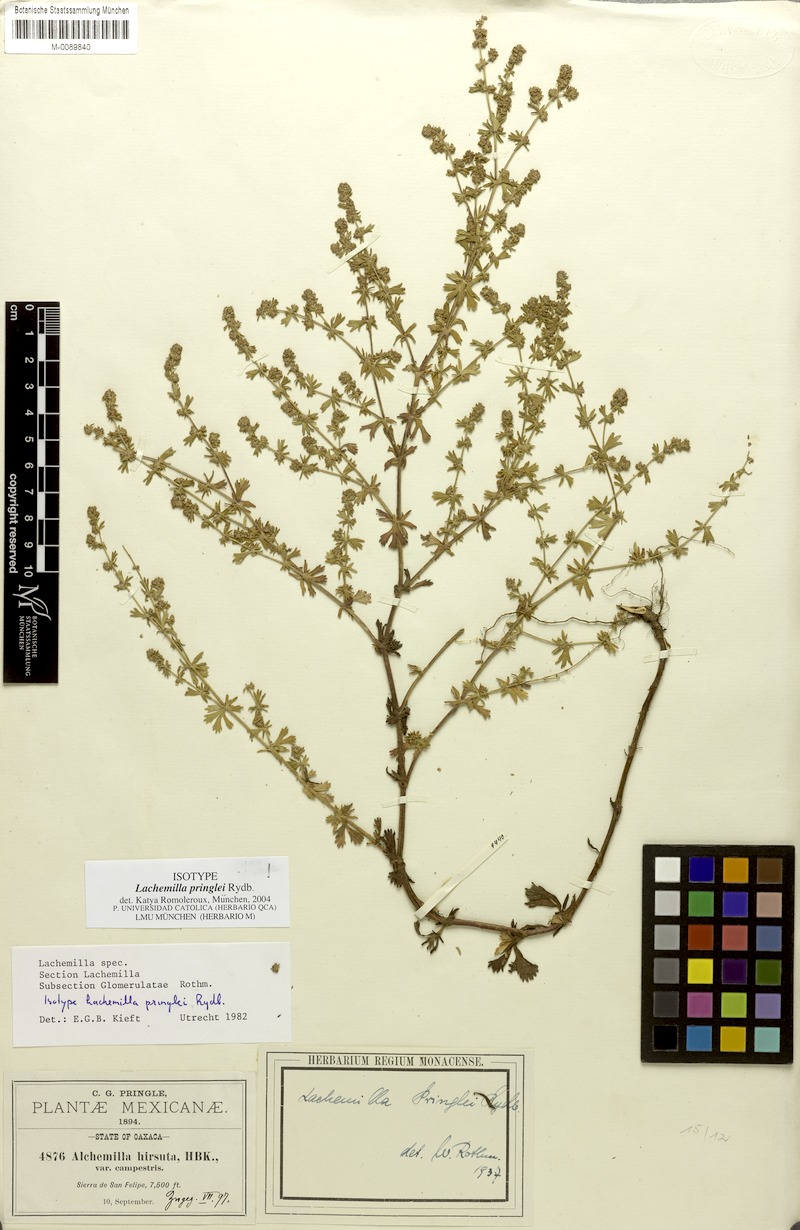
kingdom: Plantae
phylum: Tracheophyta
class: Magnoliopsida
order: Rosales
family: Rosaceae
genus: Lachemilla
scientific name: Lachemilla sibbaldiifolia
